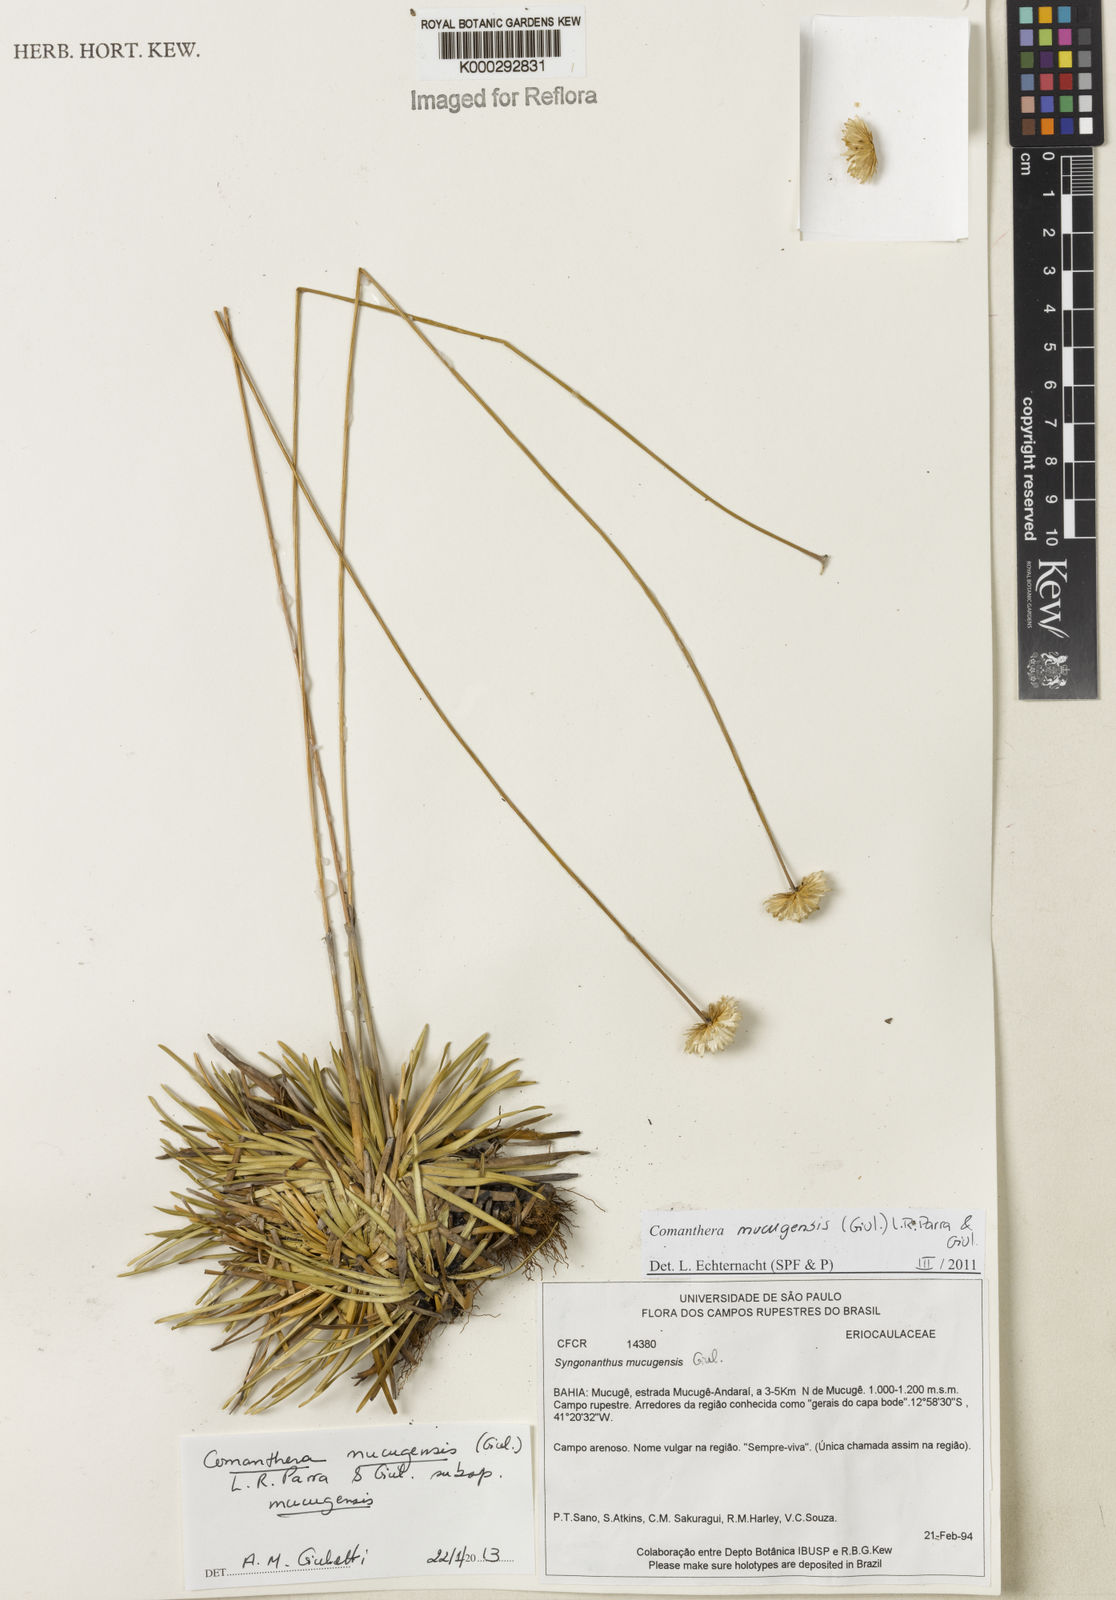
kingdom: Plantae
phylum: Tracheophyta
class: Liliopsida
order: Poales
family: Eriocaulaceae
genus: Comanthera
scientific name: Comanthera mucugensis
